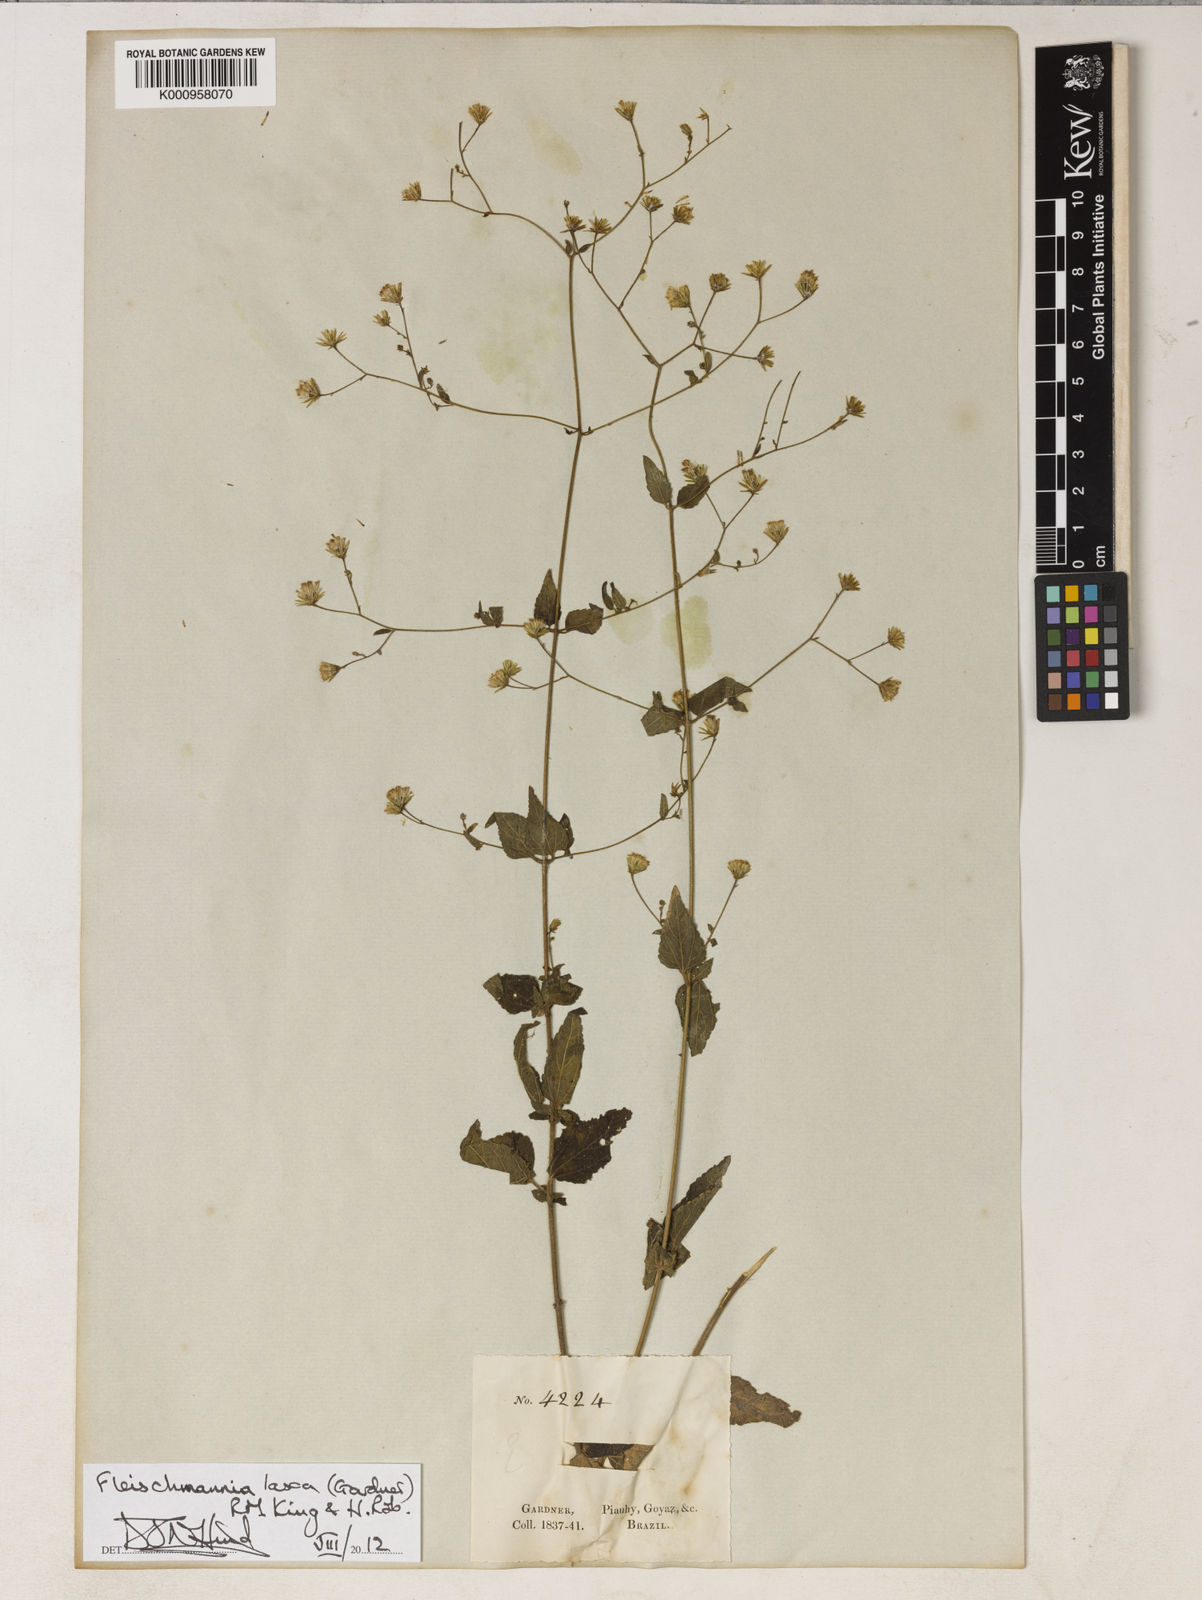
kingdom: Plantae
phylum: Tracheophyta
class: Magnoliopsida
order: Asterales
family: Asteraceae
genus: Fleischmannia
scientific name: Fleischmannia laxa
